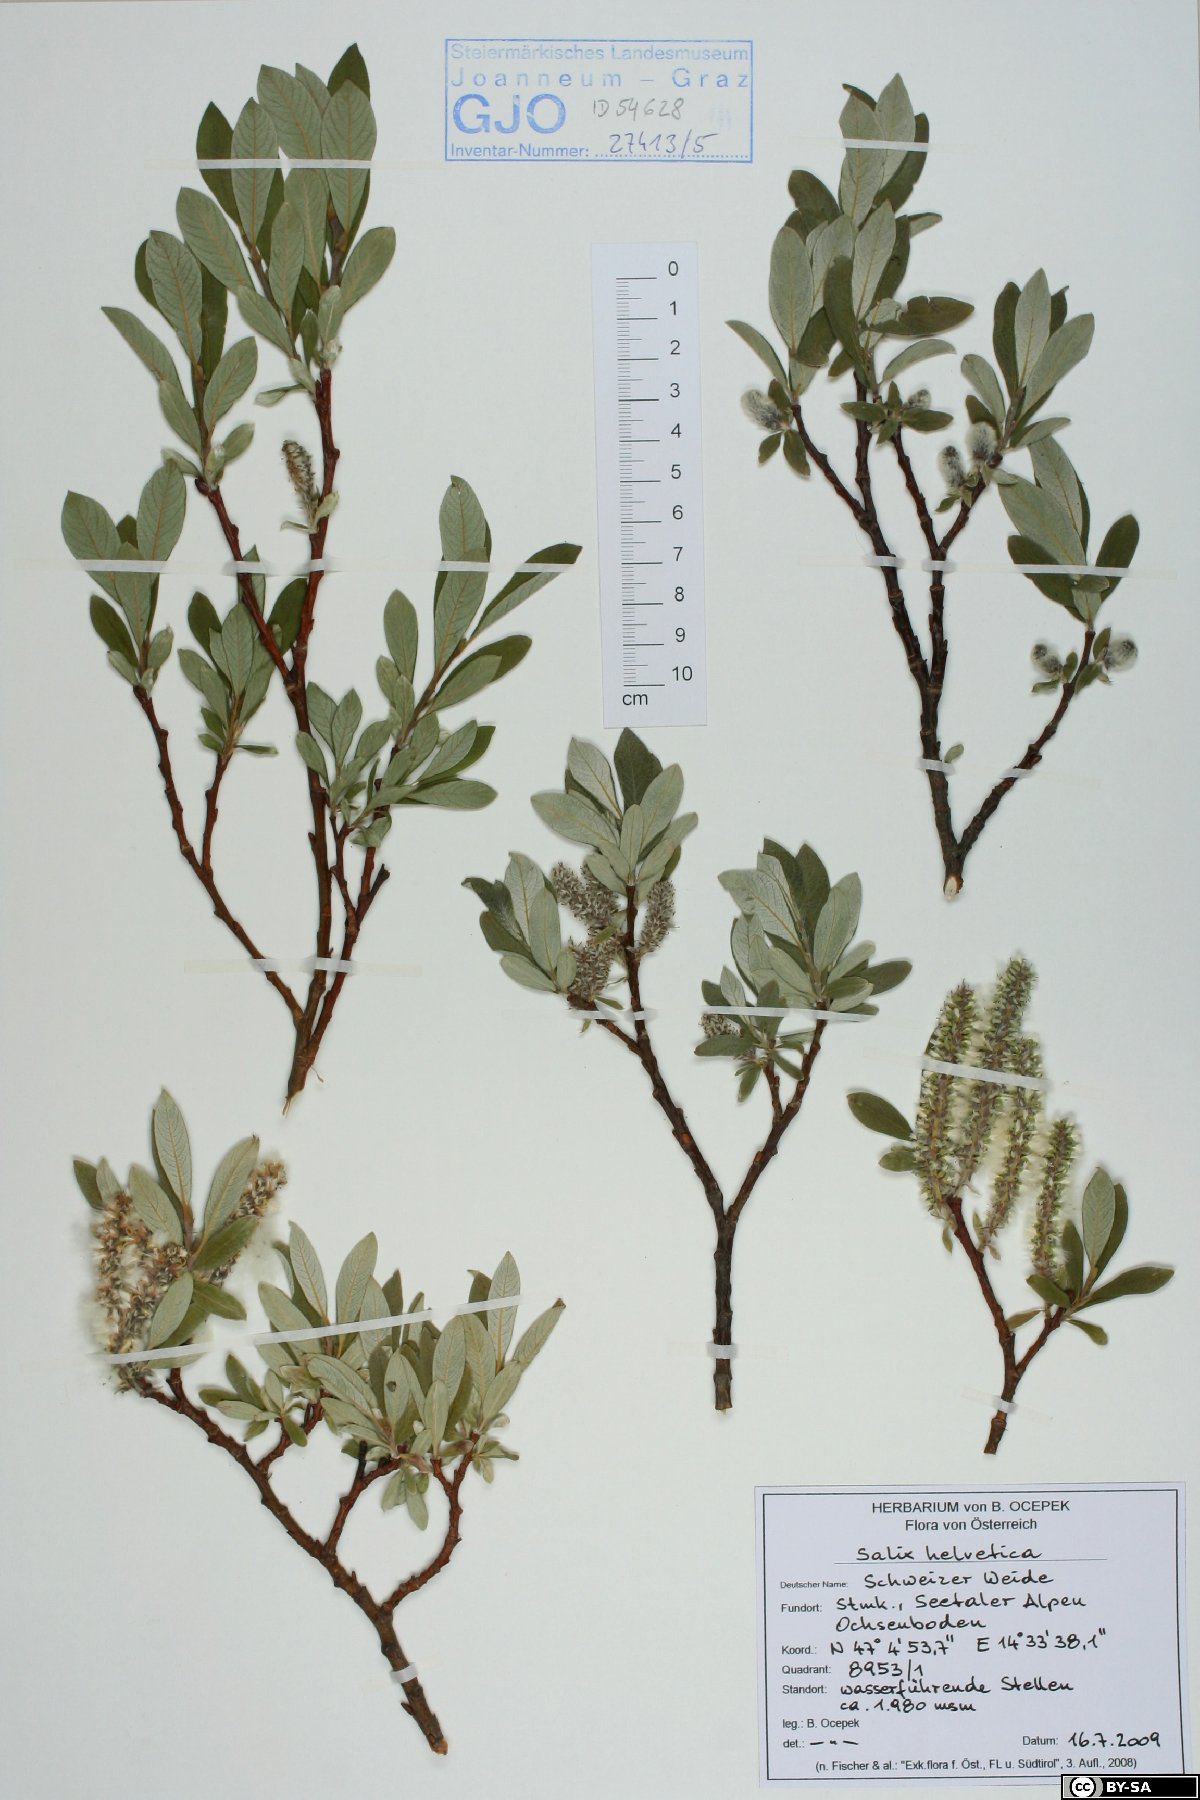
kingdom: Plantae
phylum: Tracheophyta
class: Magnoliopsida
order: Malpighiales
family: Salicaceae
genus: Salix
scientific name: Salix helvetica
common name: Swiss willow
